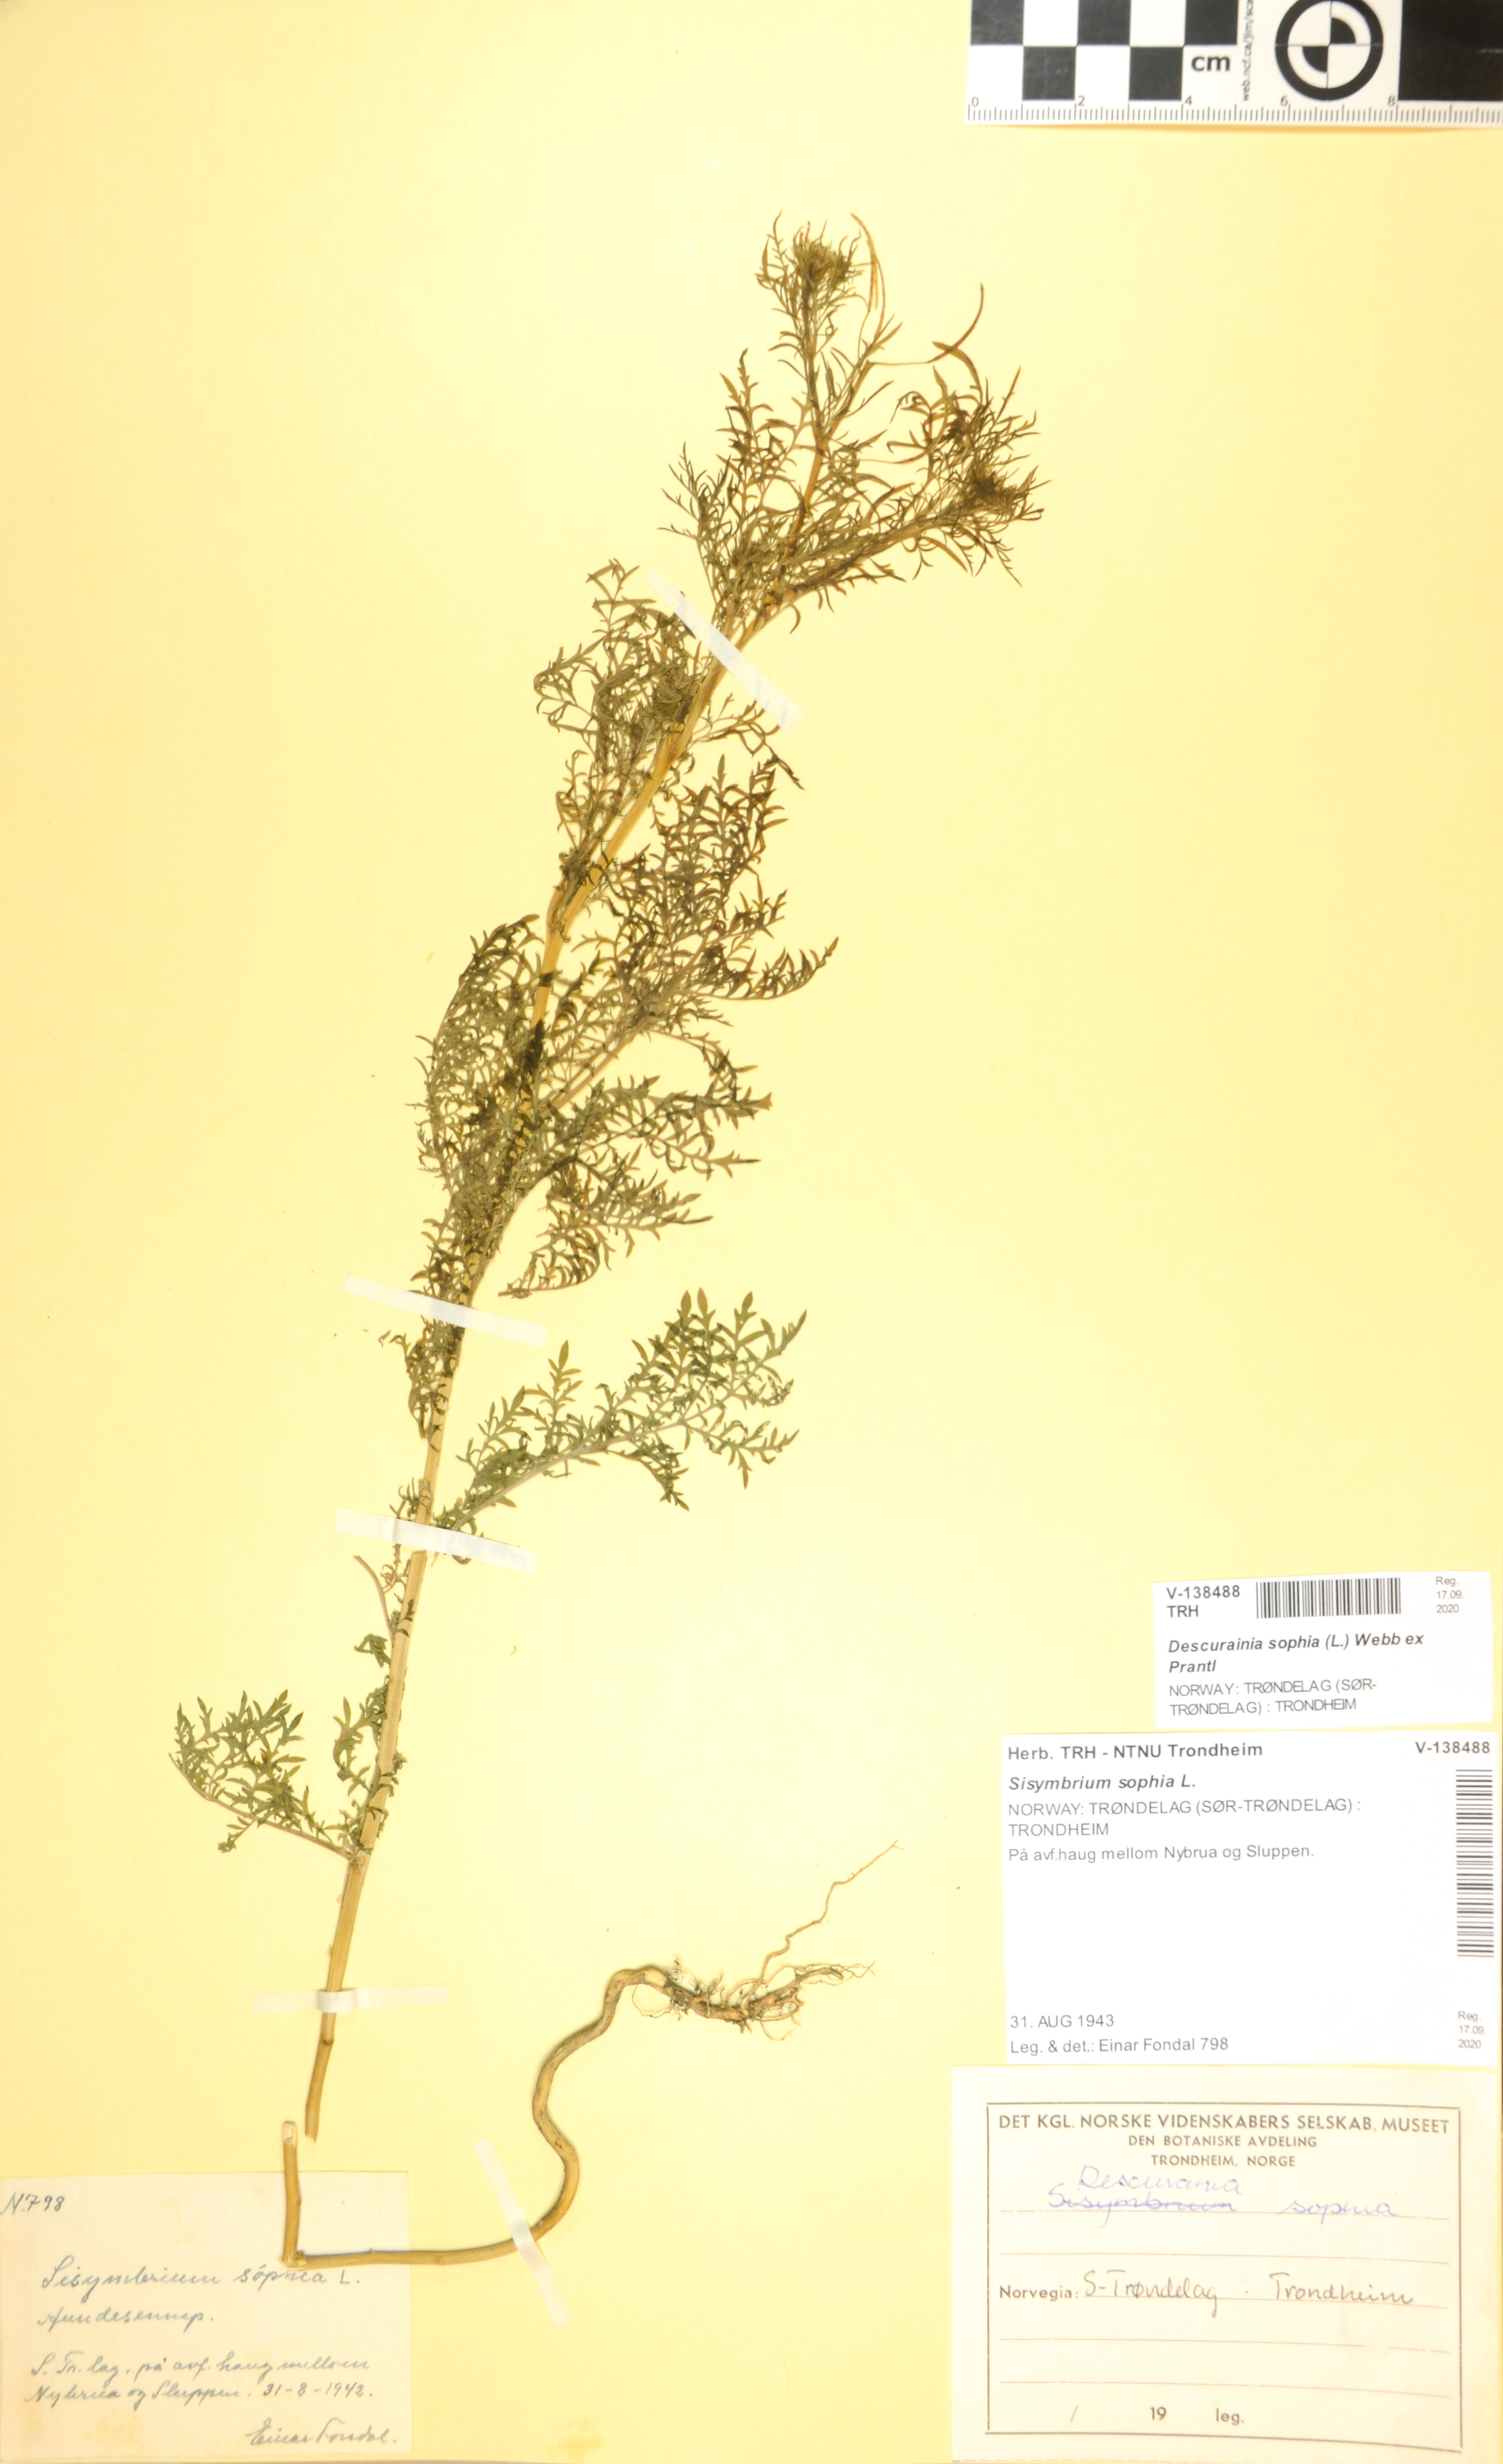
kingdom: Plantae
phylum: Tracheophyta
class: Magnoliopsida
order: Brassicales
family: Brassicaceae
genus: Descurainia
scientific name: Descurainia sophia
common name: Flixweed
